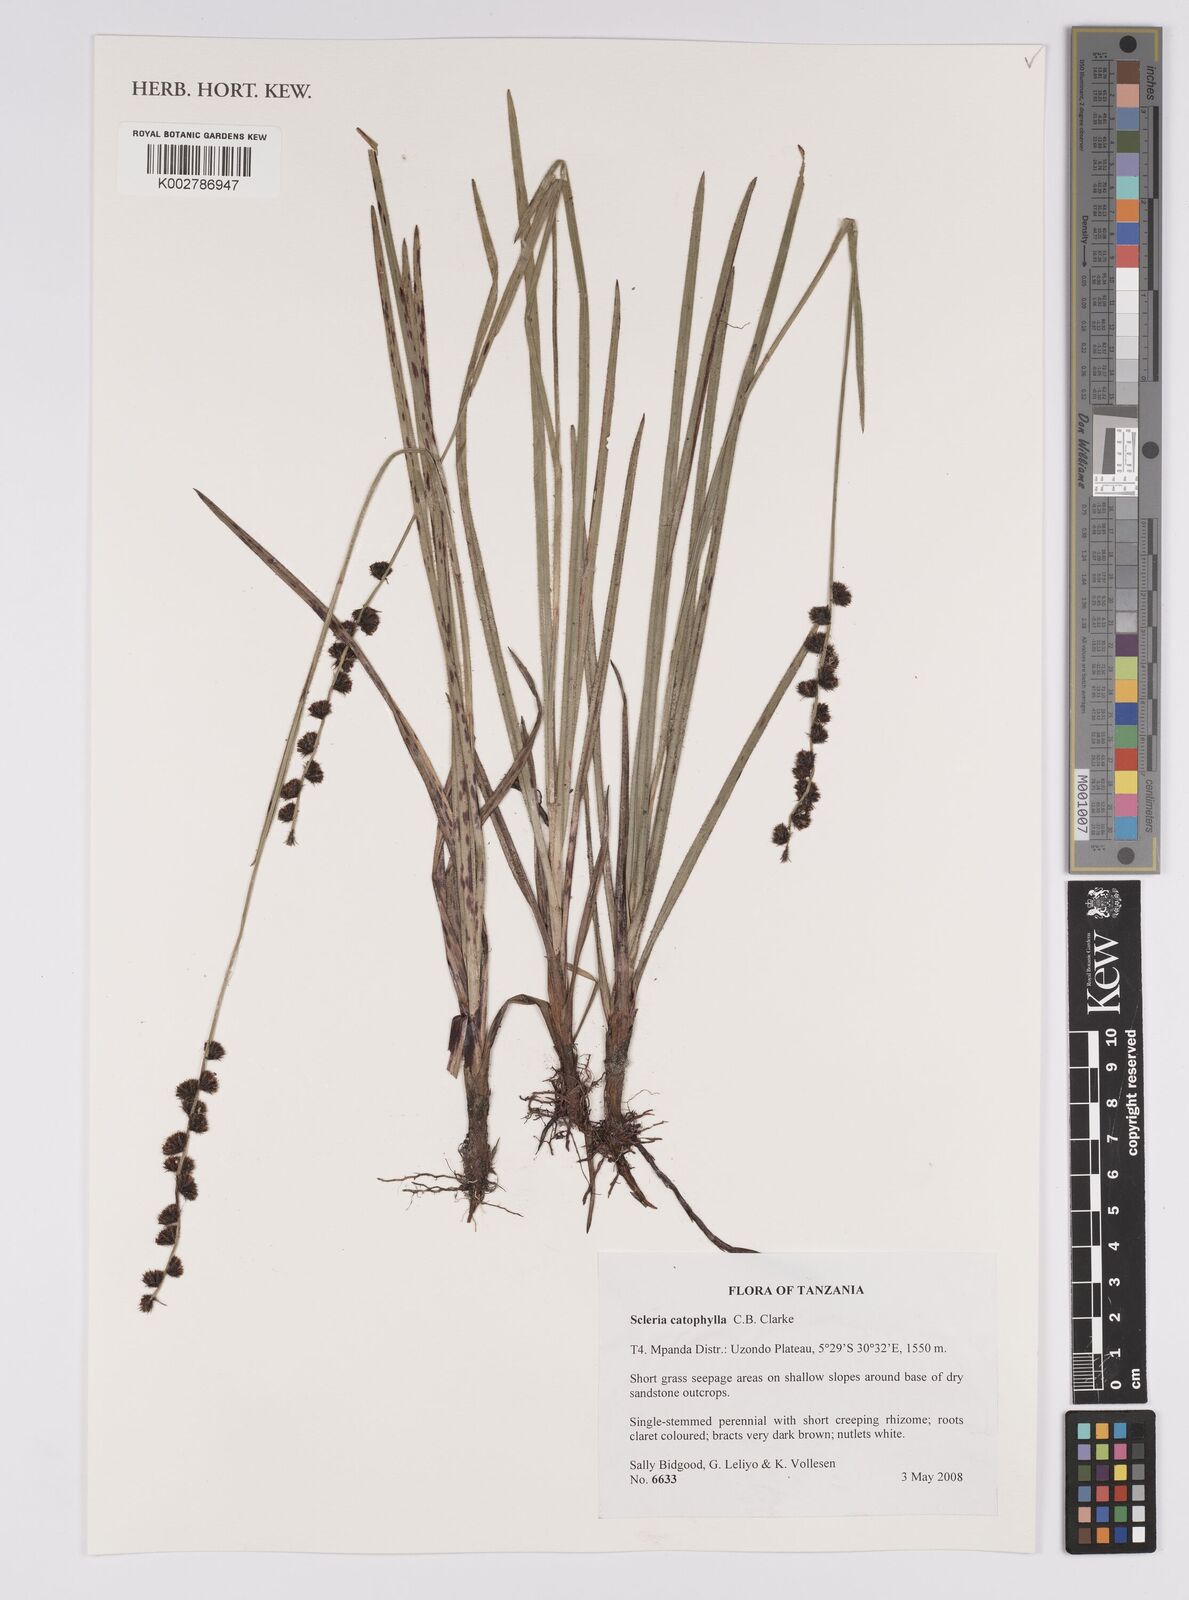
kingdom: Plantae
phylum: Tracheophyta
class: Liliopsida
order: Poales
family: Cyperaceae
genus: Scleria
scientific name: Scleria catophylla
